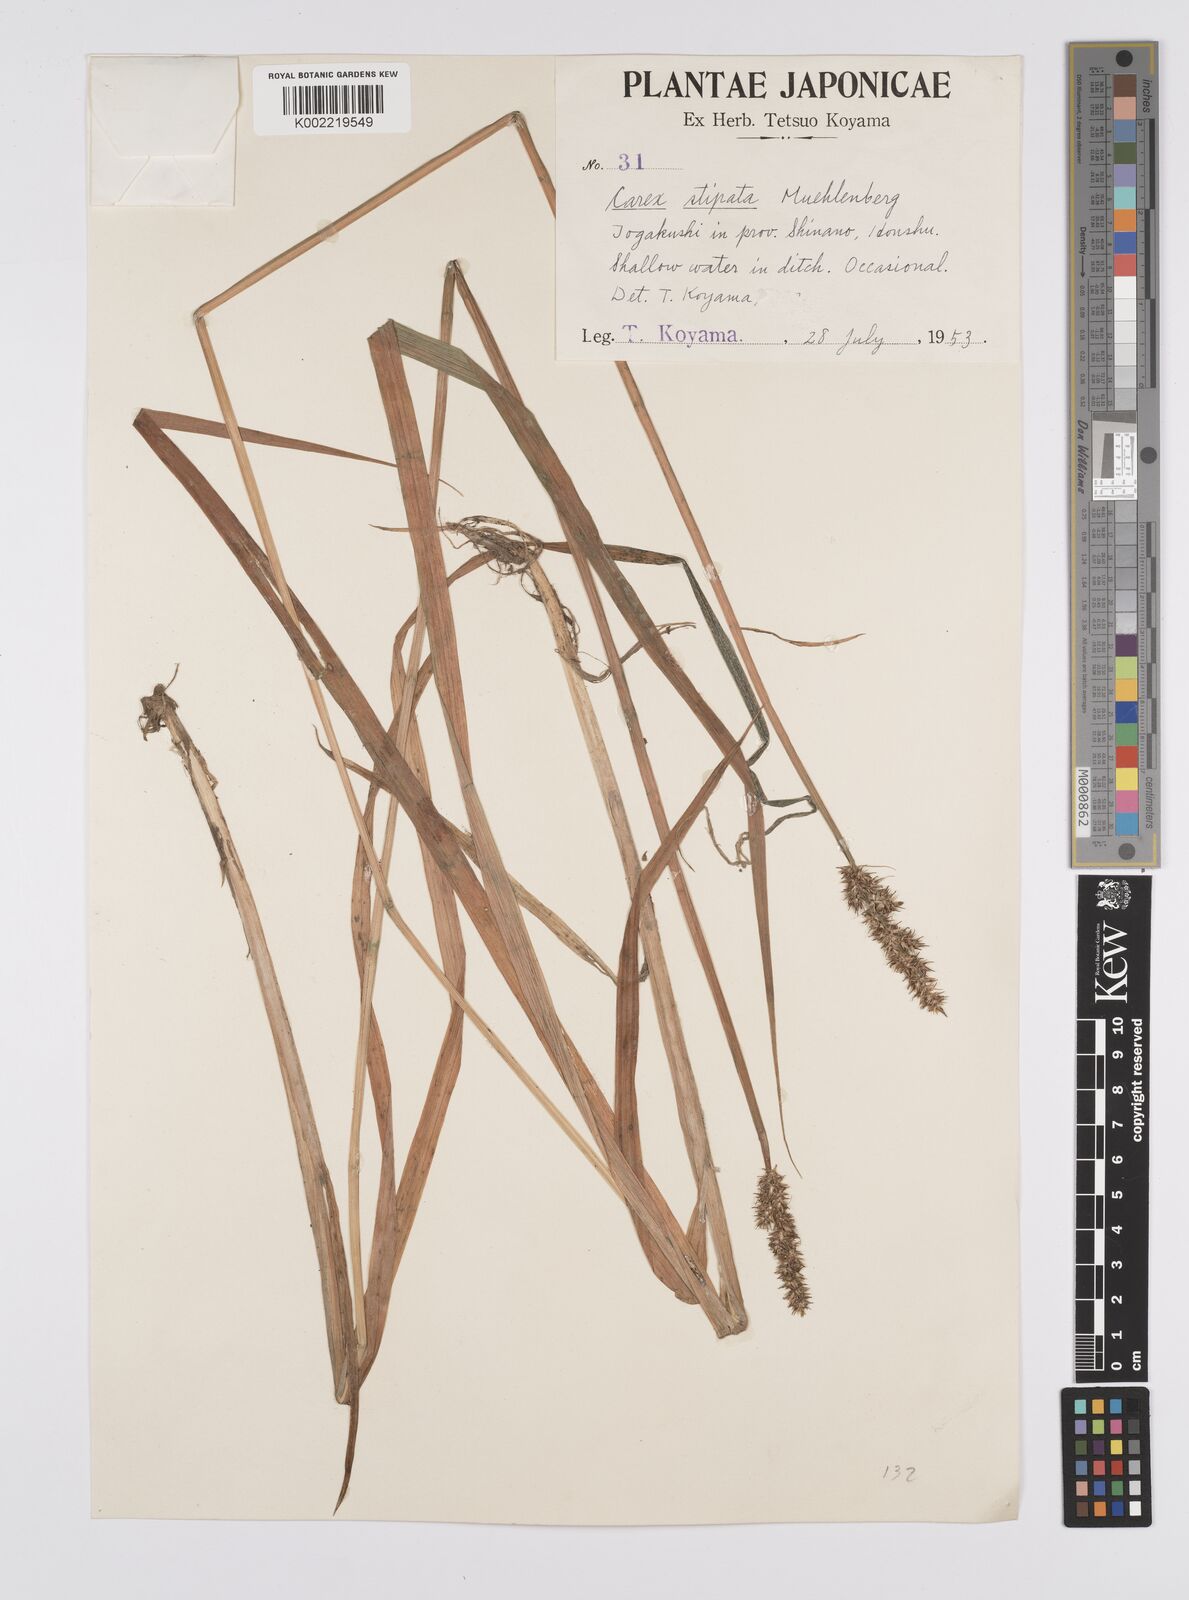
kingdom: Plantae
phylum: Tracheophyta
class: Liliopsida
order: Poales
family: Cyperaceae
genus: Carex
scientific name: Carex stipata
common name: Awl-fruited sedge
